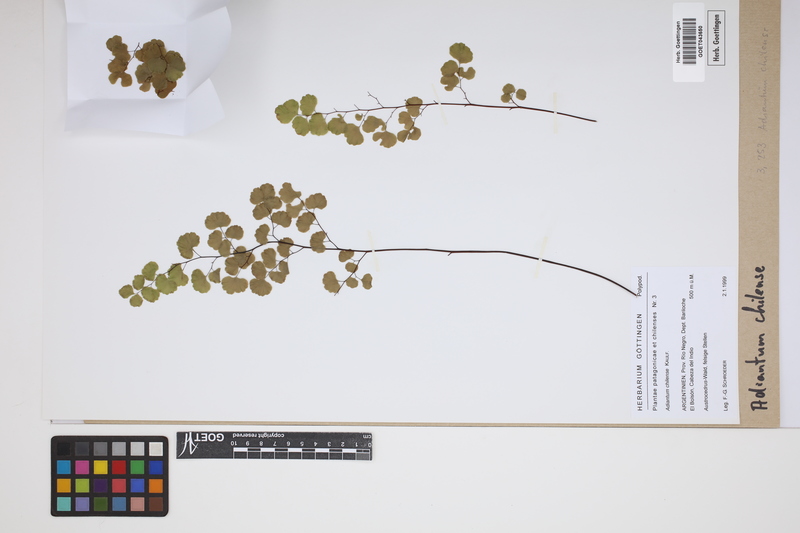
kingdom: Plantae
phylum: Tracheophyta
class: Polypodiopsida
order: Polypodiales
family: Pteridaceae
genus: Adiantum
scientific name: Adiantum chilense
